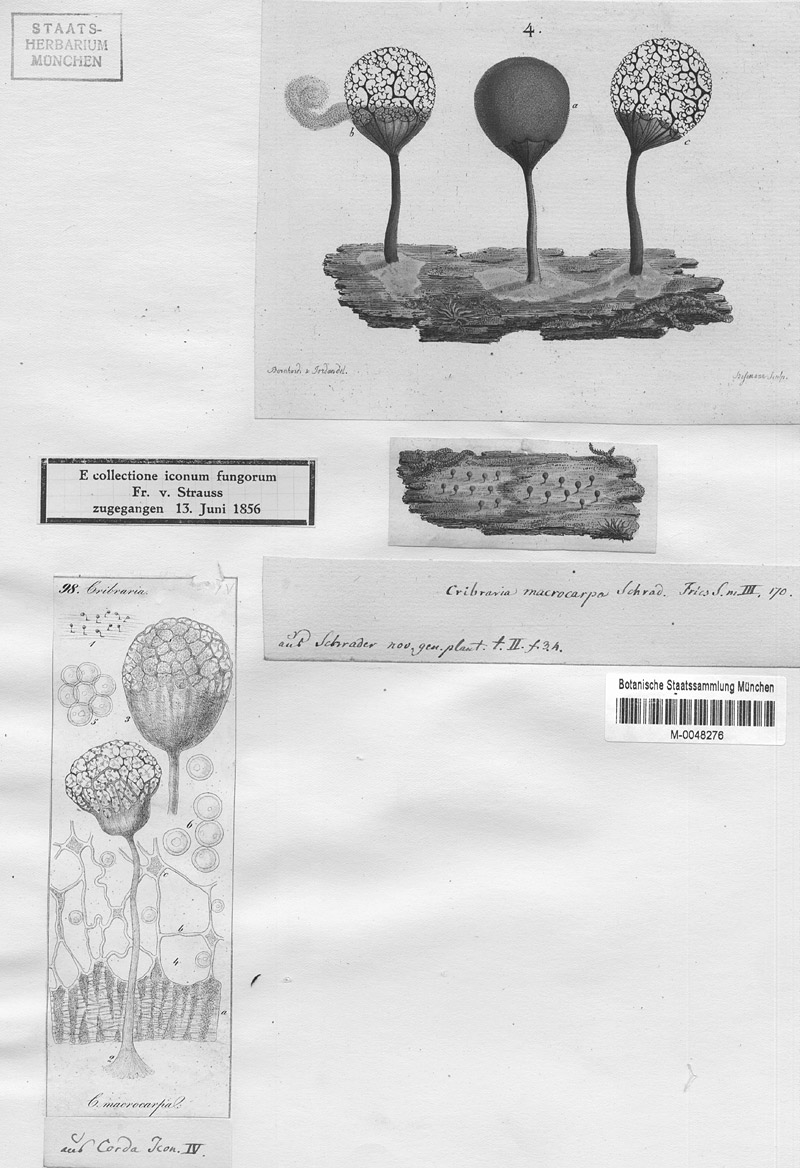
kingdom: Protozoa
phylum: Mycetozoa
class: Myxomycetes
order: Cribrariales
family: Cribrariaceae
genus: Cribraria
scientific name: Cribraria macrocarpa
